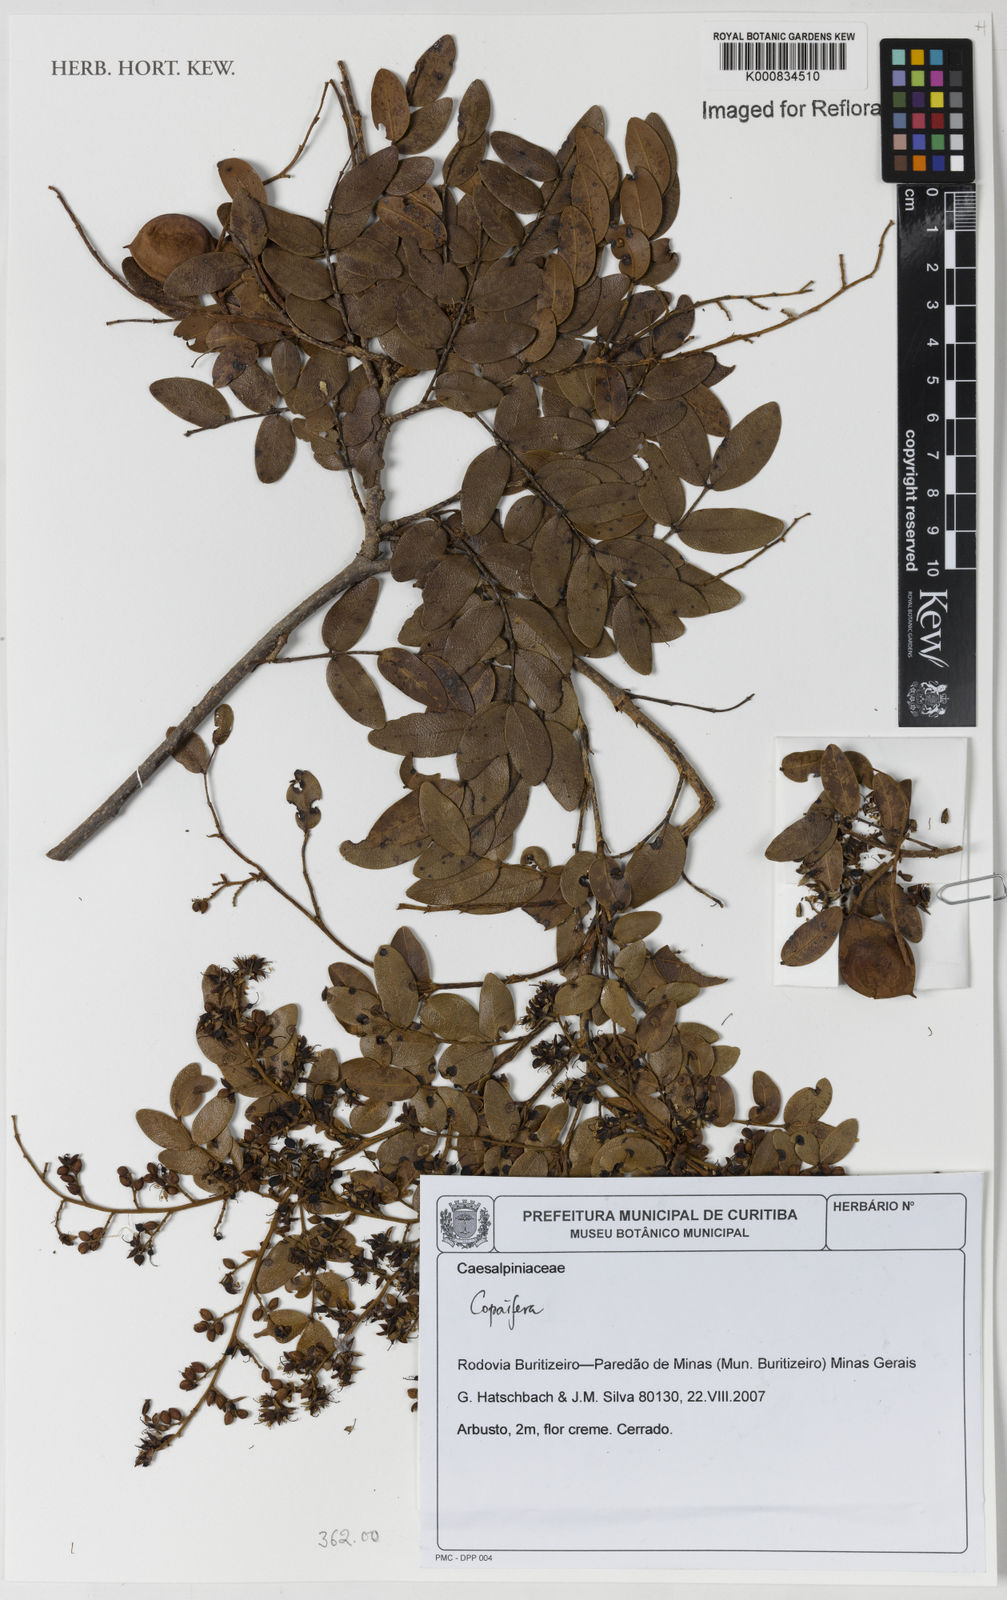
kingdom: Plantae
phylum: Tracheophyta
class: Magnoliopsida
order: Fabales
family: Fabaceae
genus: Copaifera
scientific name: Copaifera
